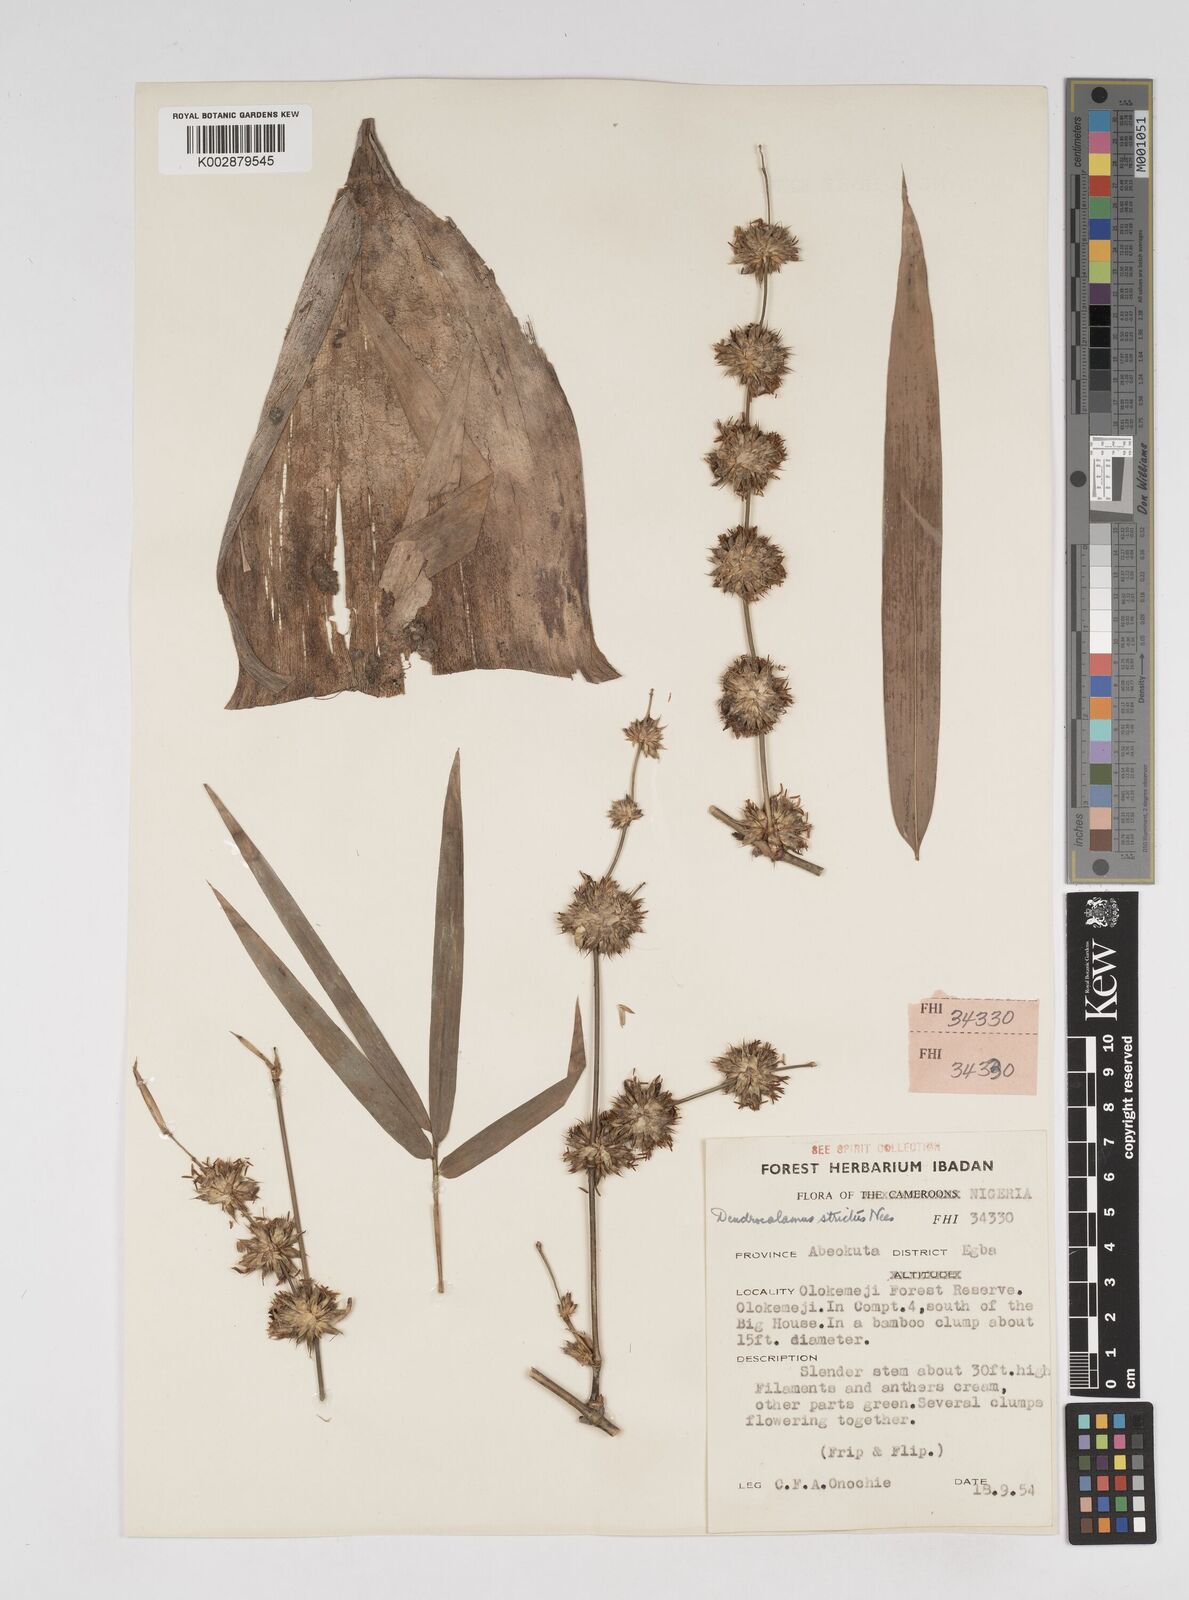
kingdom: Plantae
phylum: Tracheophyta
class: Liliopsida
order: Poales
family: Poaceae
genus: Dendrocalamus
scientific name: Dendrocalamus strictus
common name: Male bamboo
